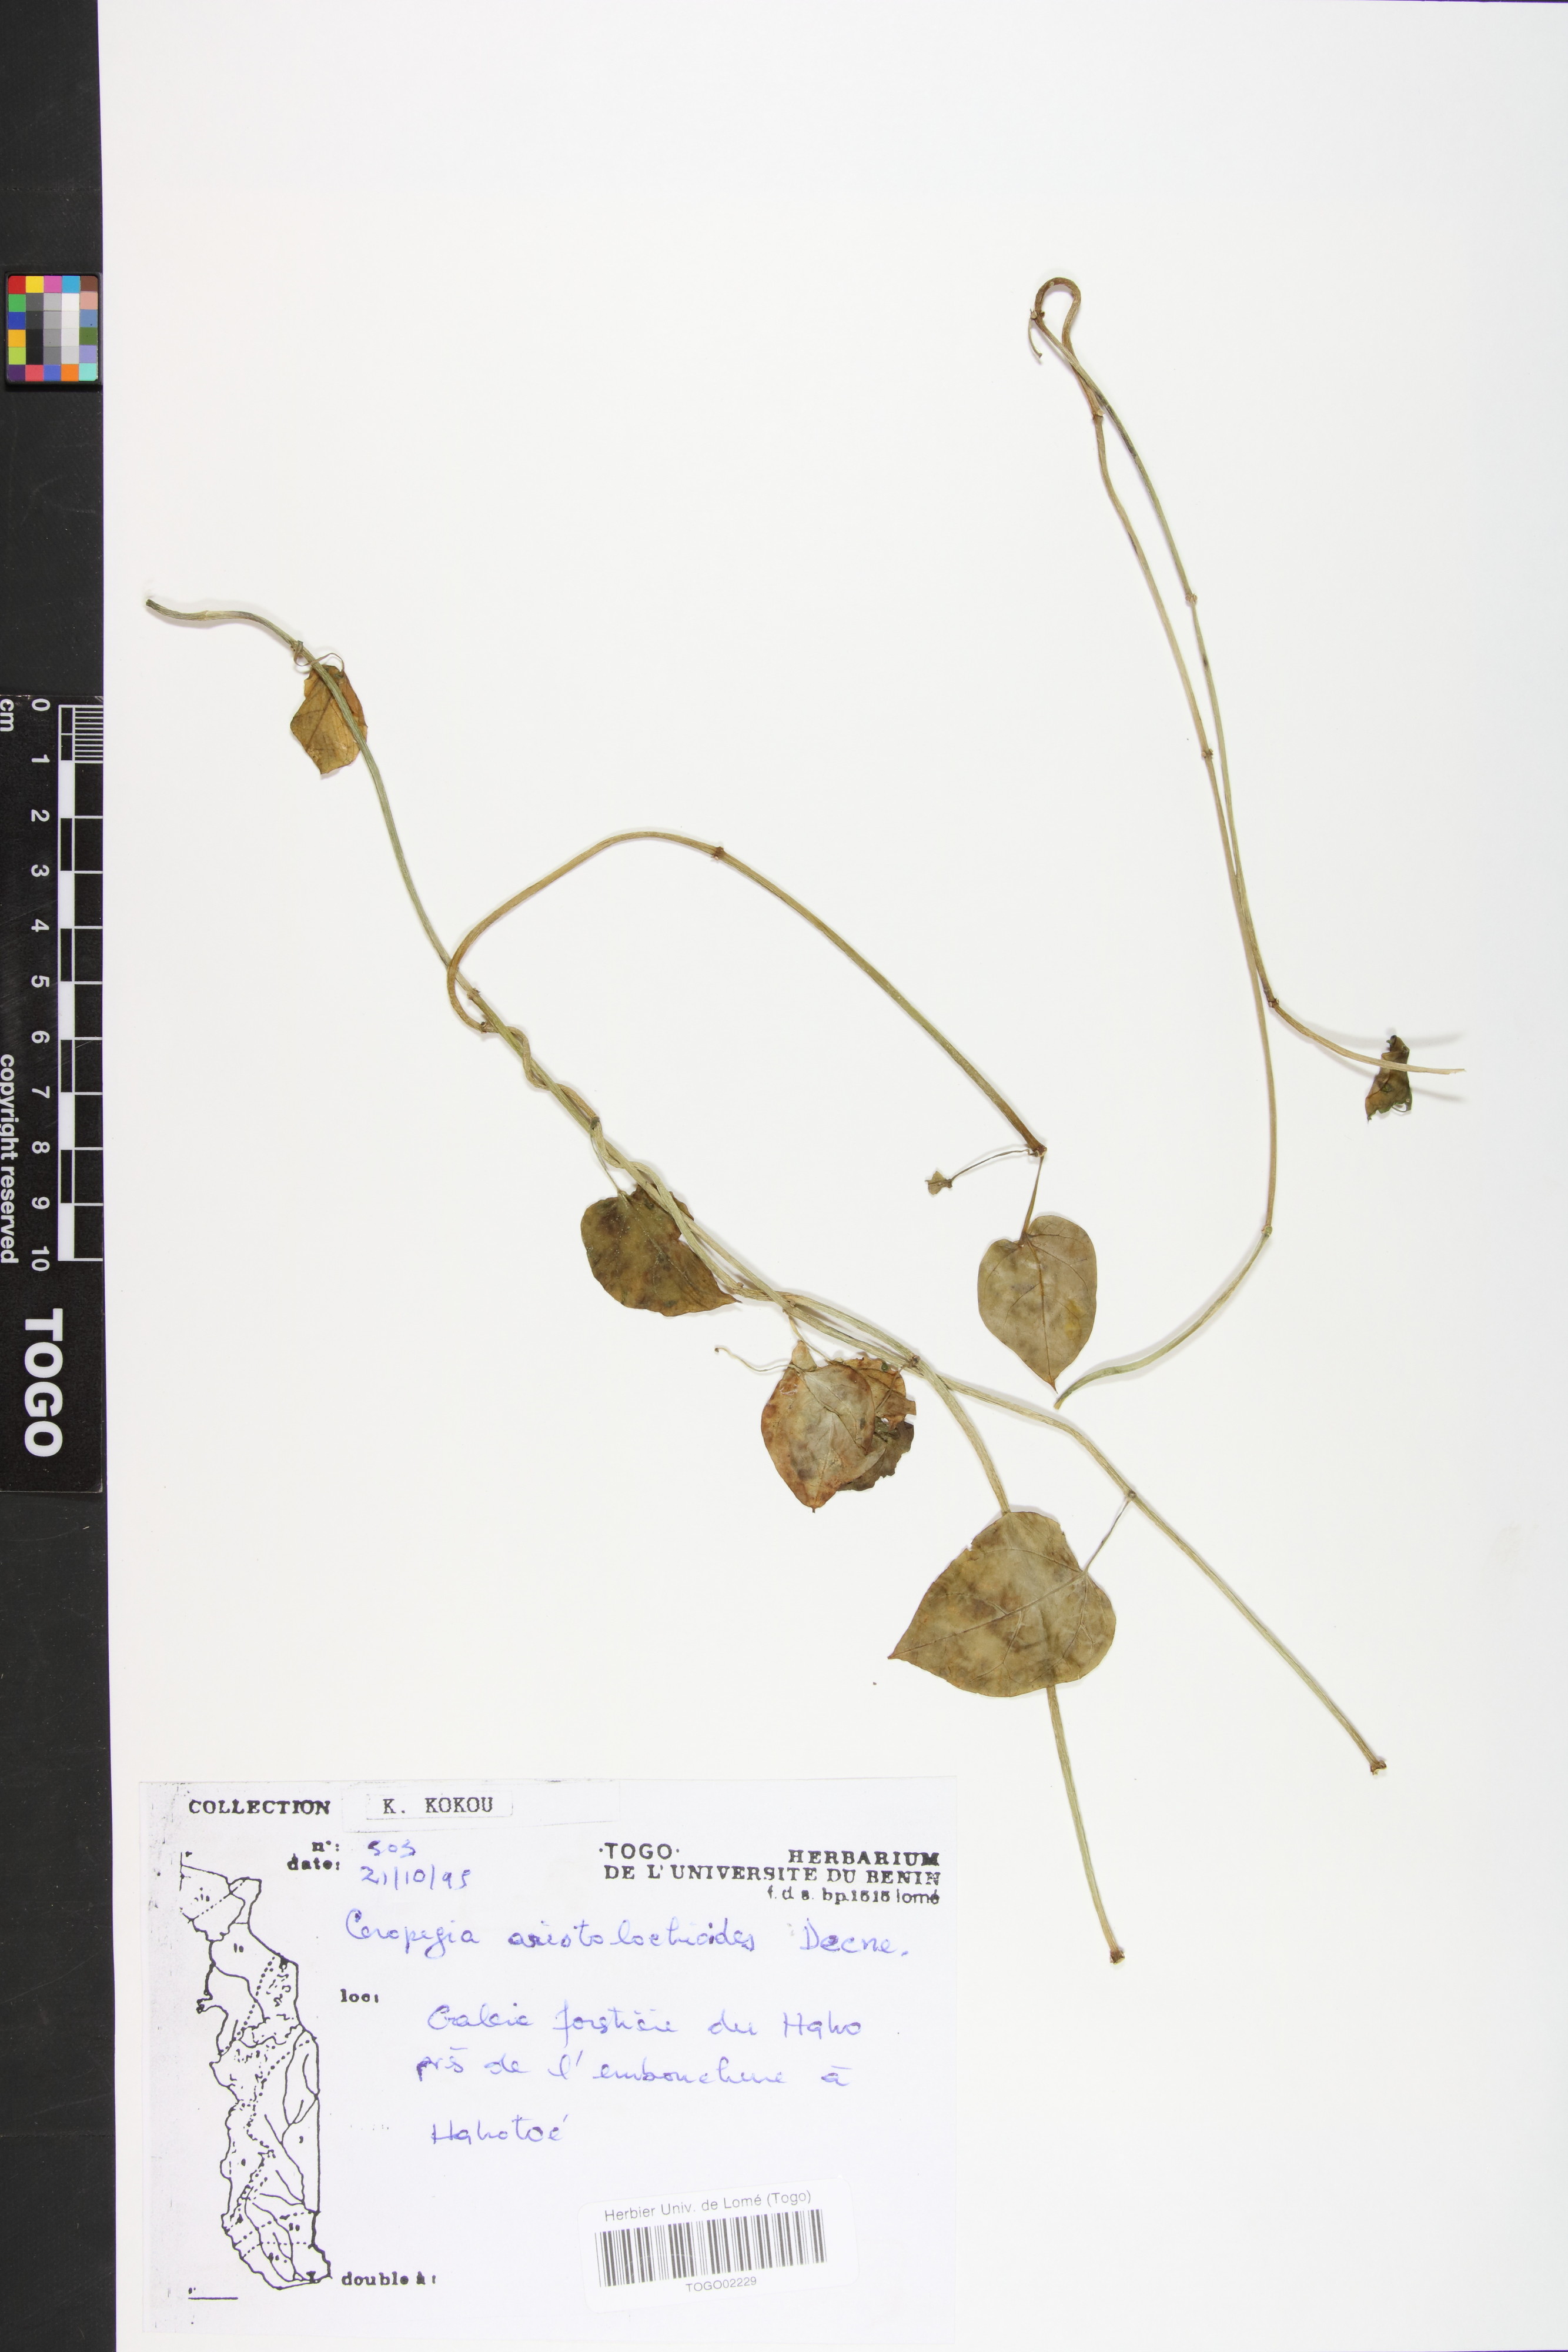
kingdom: Plantae
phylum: Tracheophyta
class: Magnoliopsida
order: Gentianales
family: Apocynaceae
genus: Ceropegia
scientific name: Ceropegia aristolochioides
